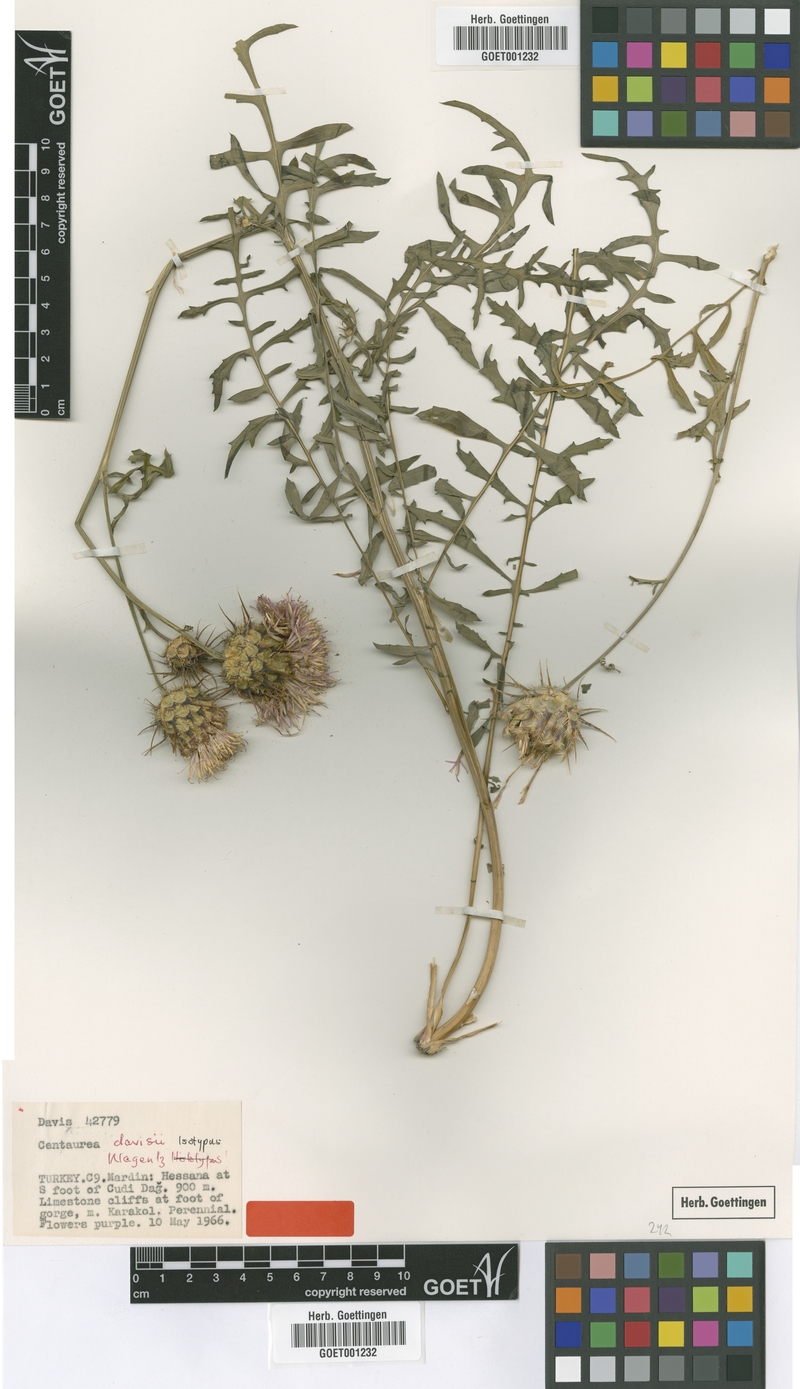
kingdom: Plantae
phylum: Tracheophyta
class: Magnoliopsida
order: Asterales
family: Asteraceae
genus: Centaurea
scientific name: Centaurea davisii
